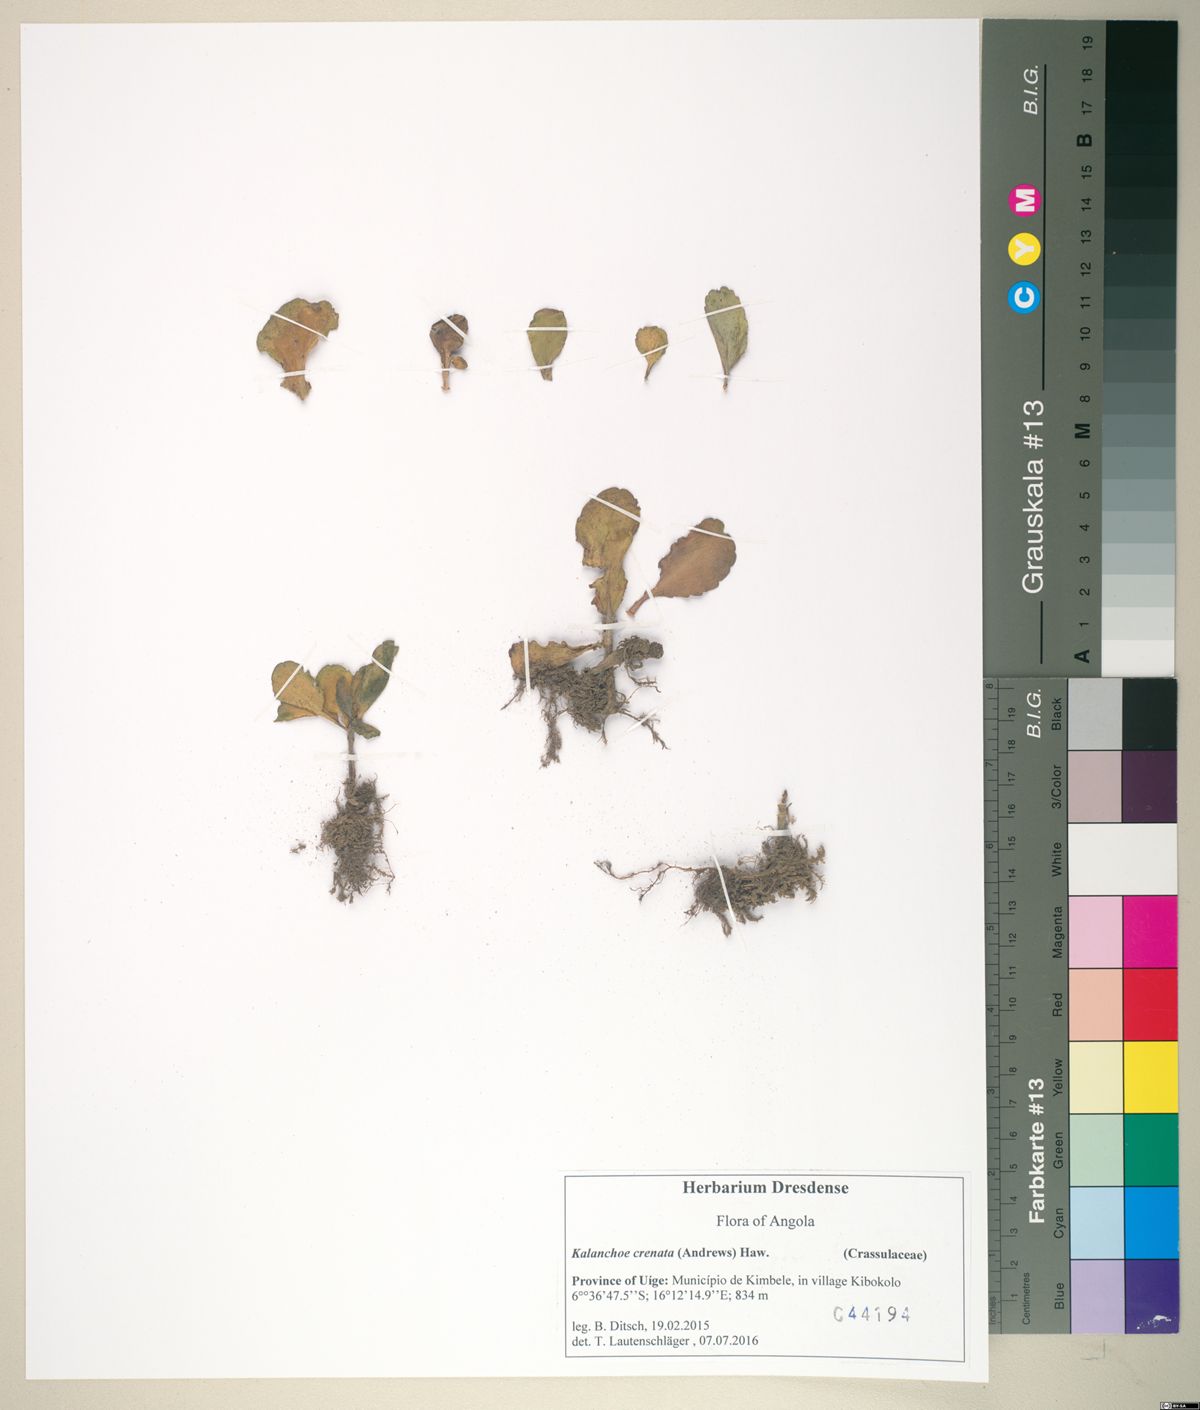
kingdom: Plantae
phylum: Tracheophyta
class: Magnoliopsida
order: Saxifragales
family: Crassulaceae
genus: Kalanchoe
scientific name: Kalanchoe crenata
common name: Neverdie
